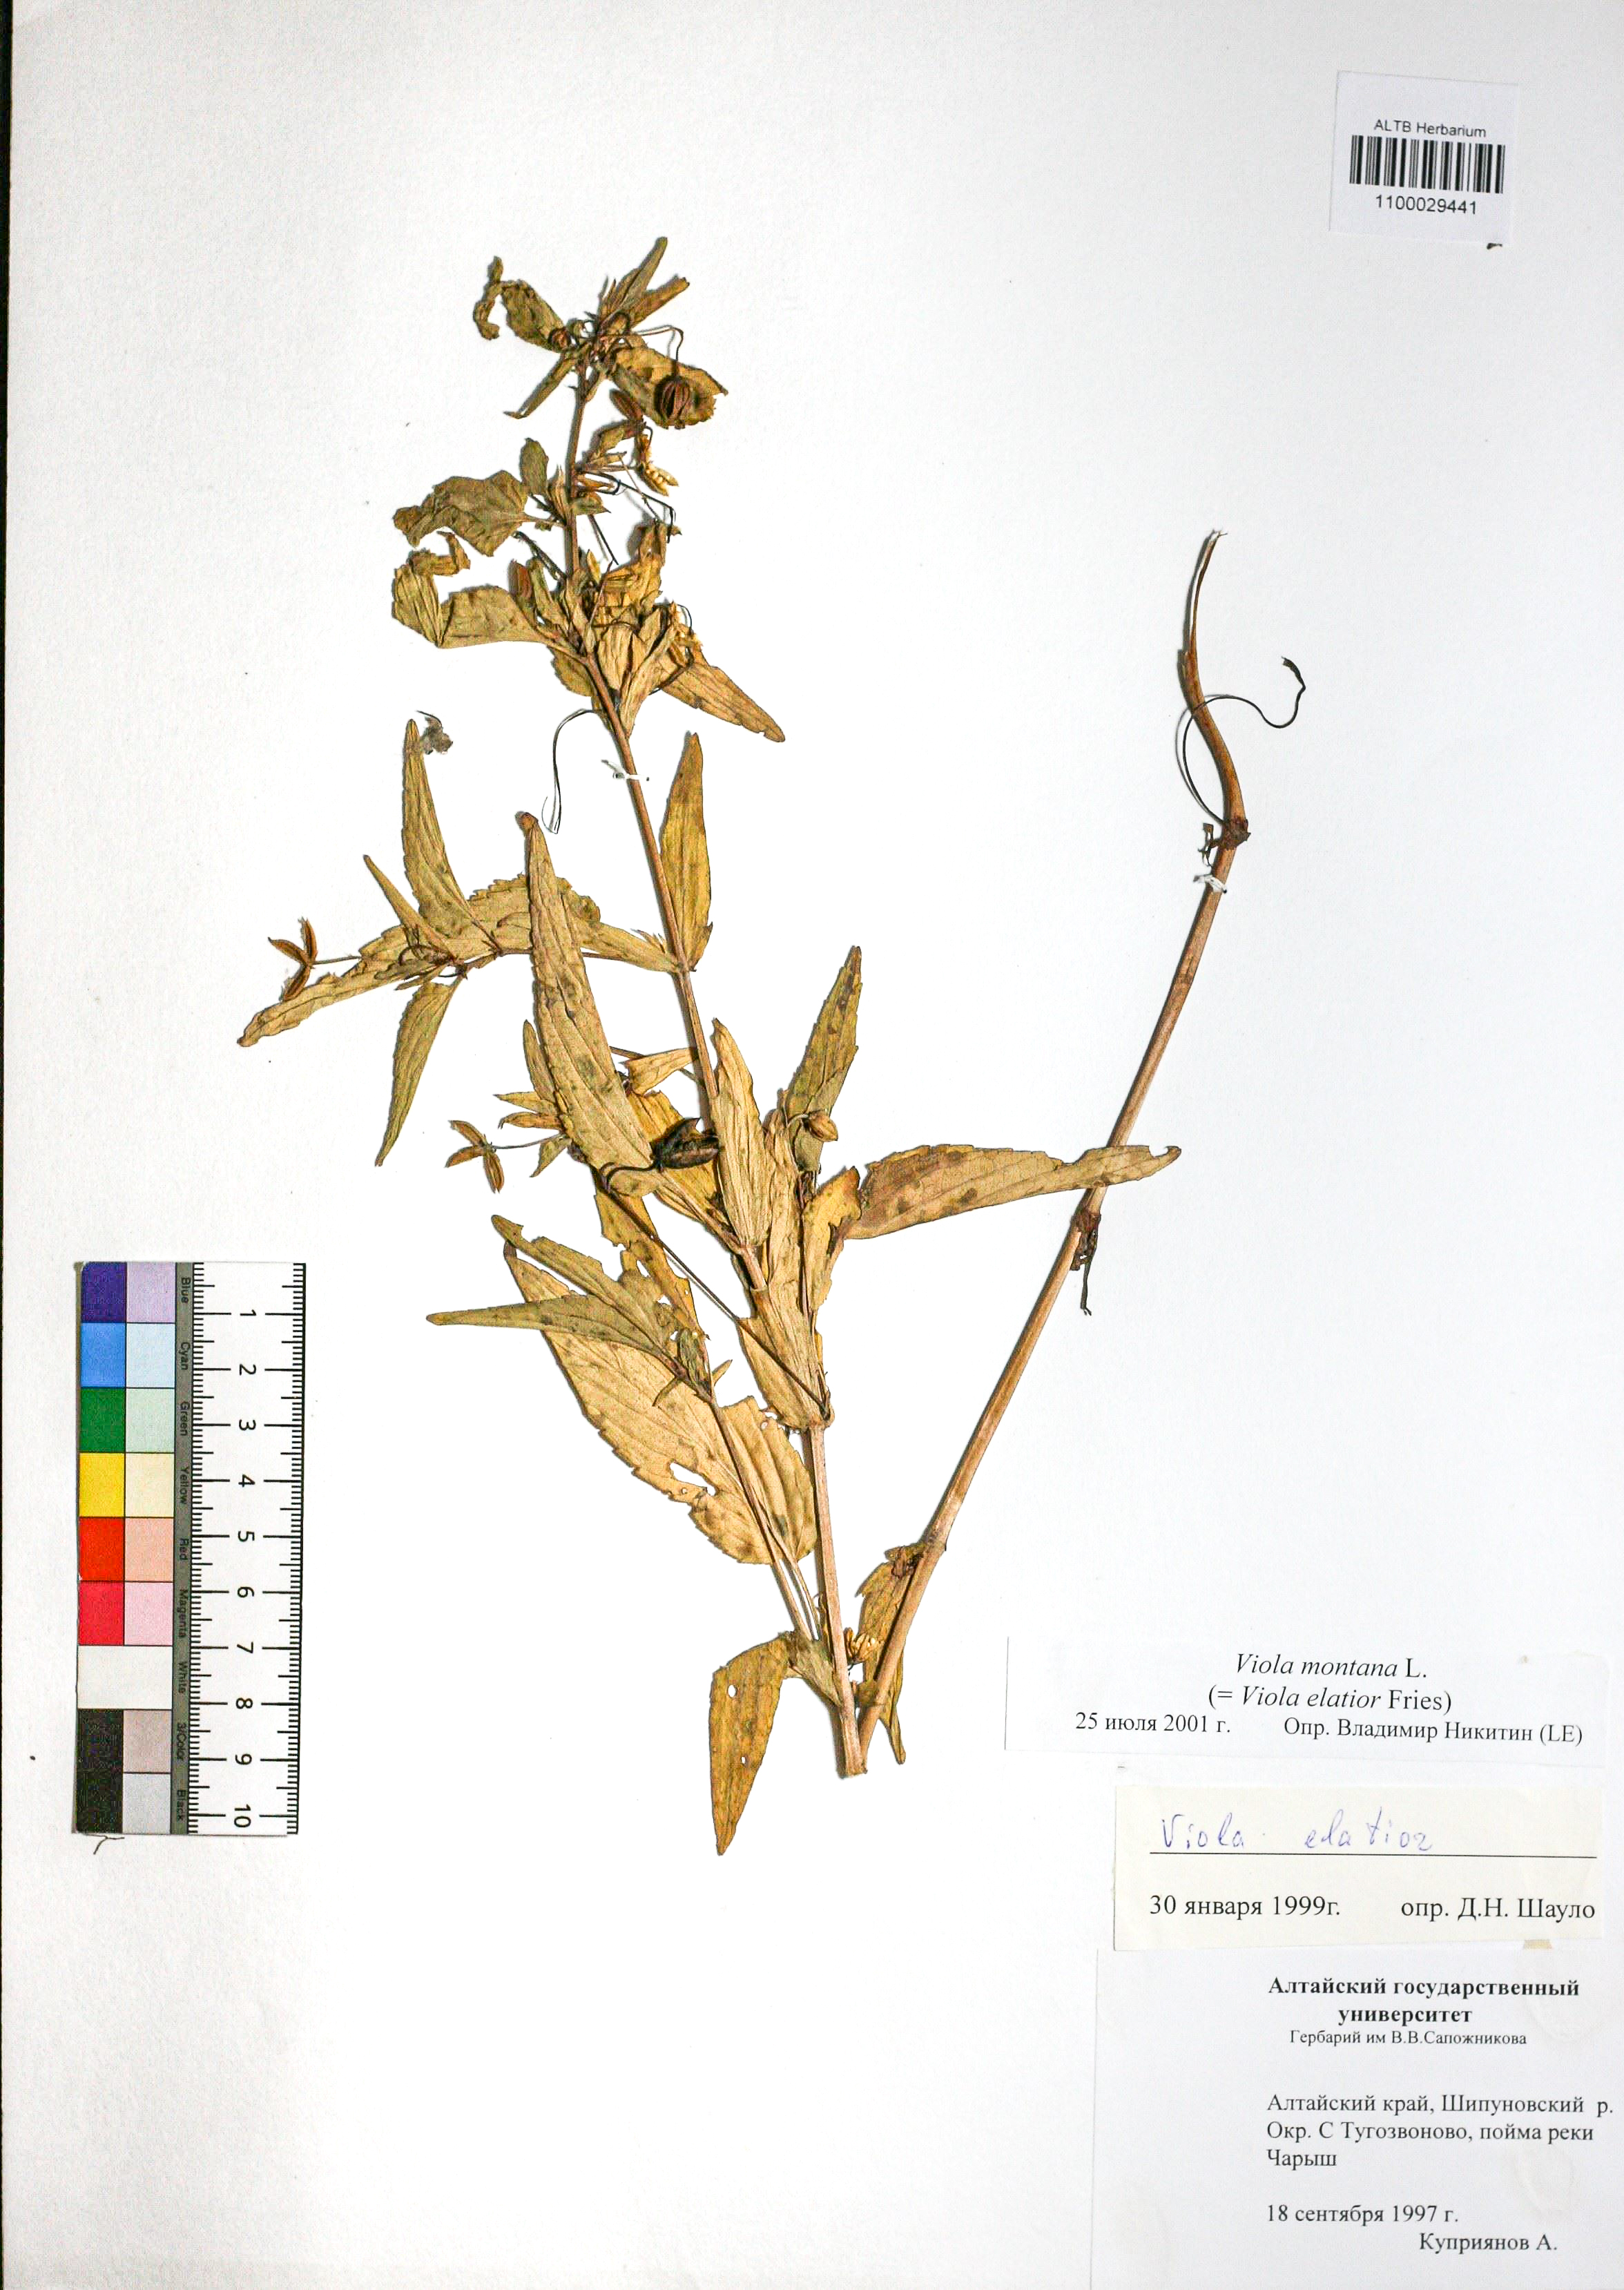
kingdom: Plantae
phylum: Tracheophyta
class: Magnoliopsida
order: Malpighiales
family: Violaceae
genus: Viola
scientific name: Viola ruppii
